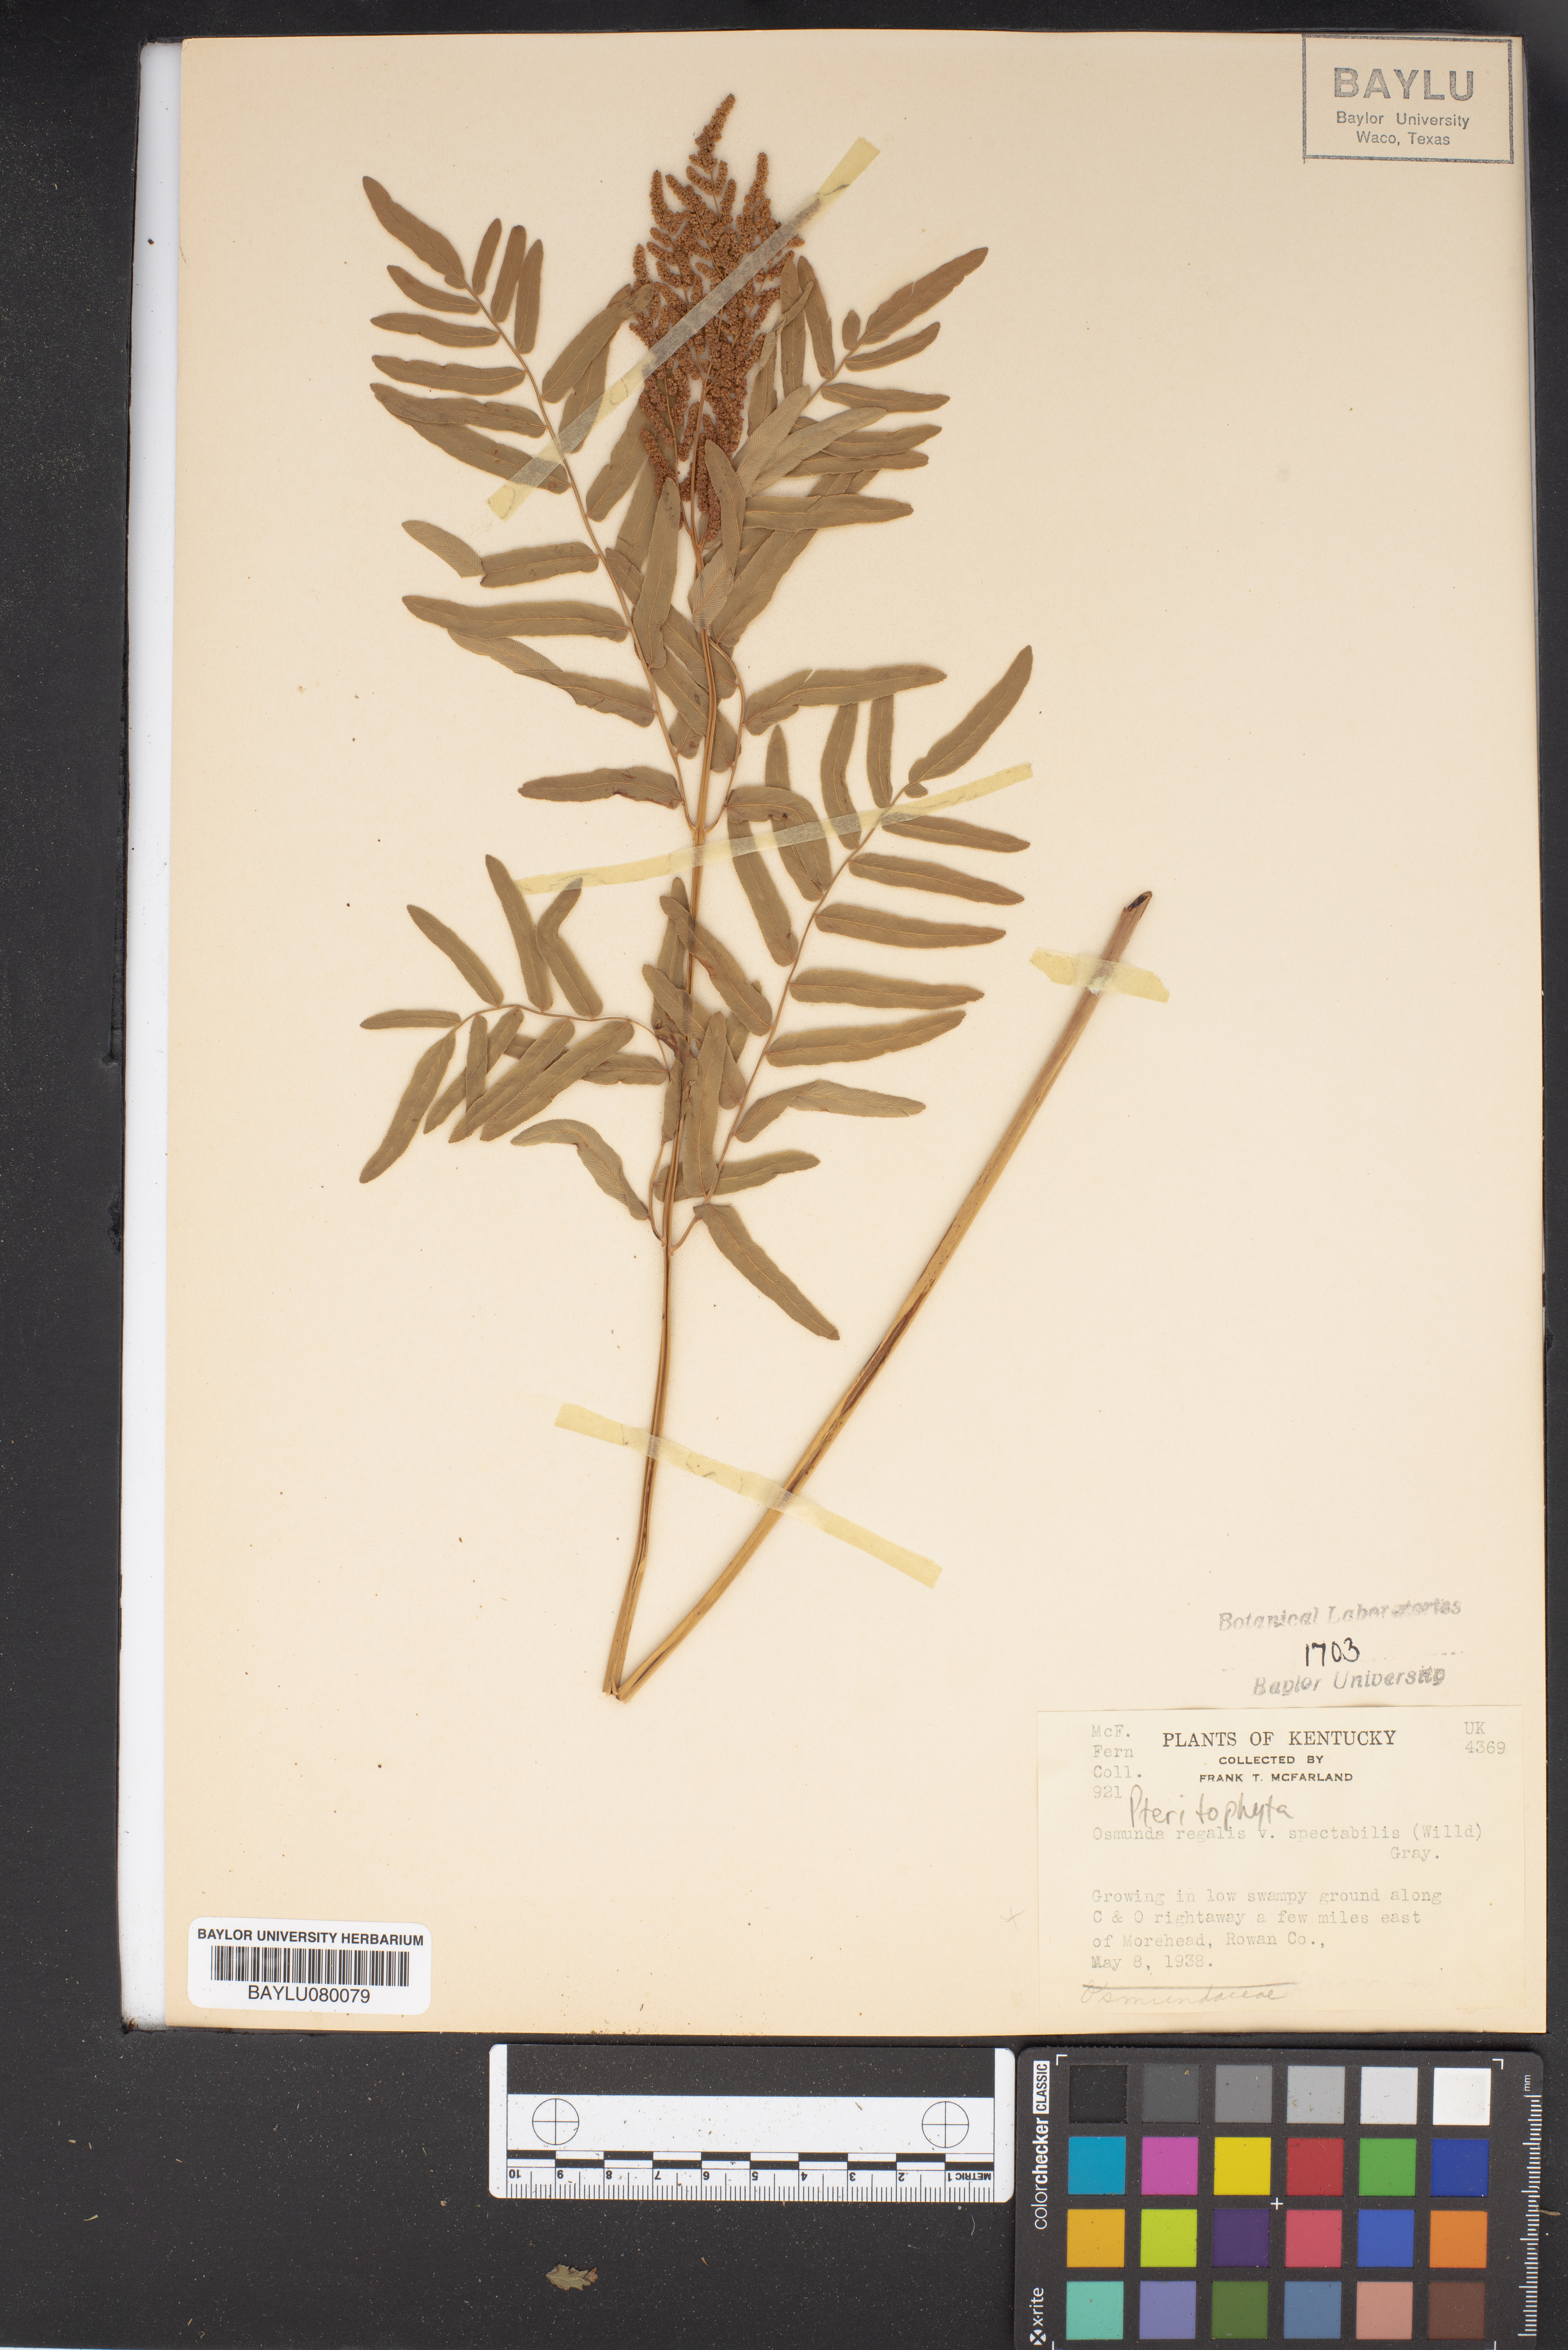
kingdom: Plantae
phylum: Tracheophyta
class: Polypodiopsida
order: Osmundales
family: Osmundaceae
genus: Osmunda
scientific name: Osmunda spectabilis
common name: American royal fern
